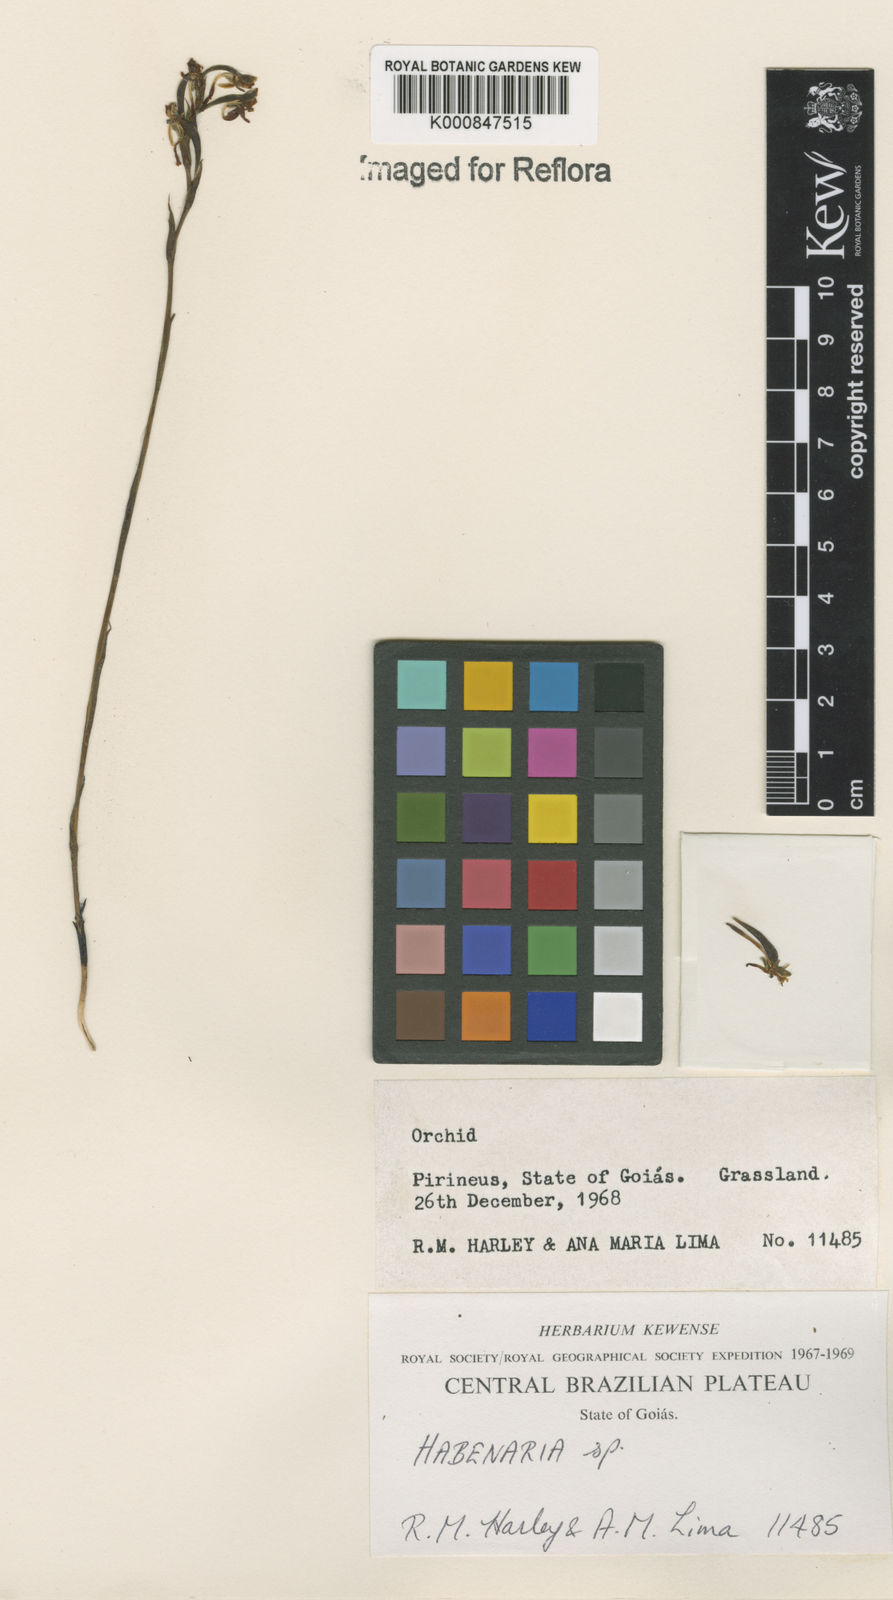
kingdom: Plantae
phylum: Tracheophyta
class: Liliopsida
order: Asparagales
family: Orchidaceae
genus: Habenaria
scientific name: Habenaria
